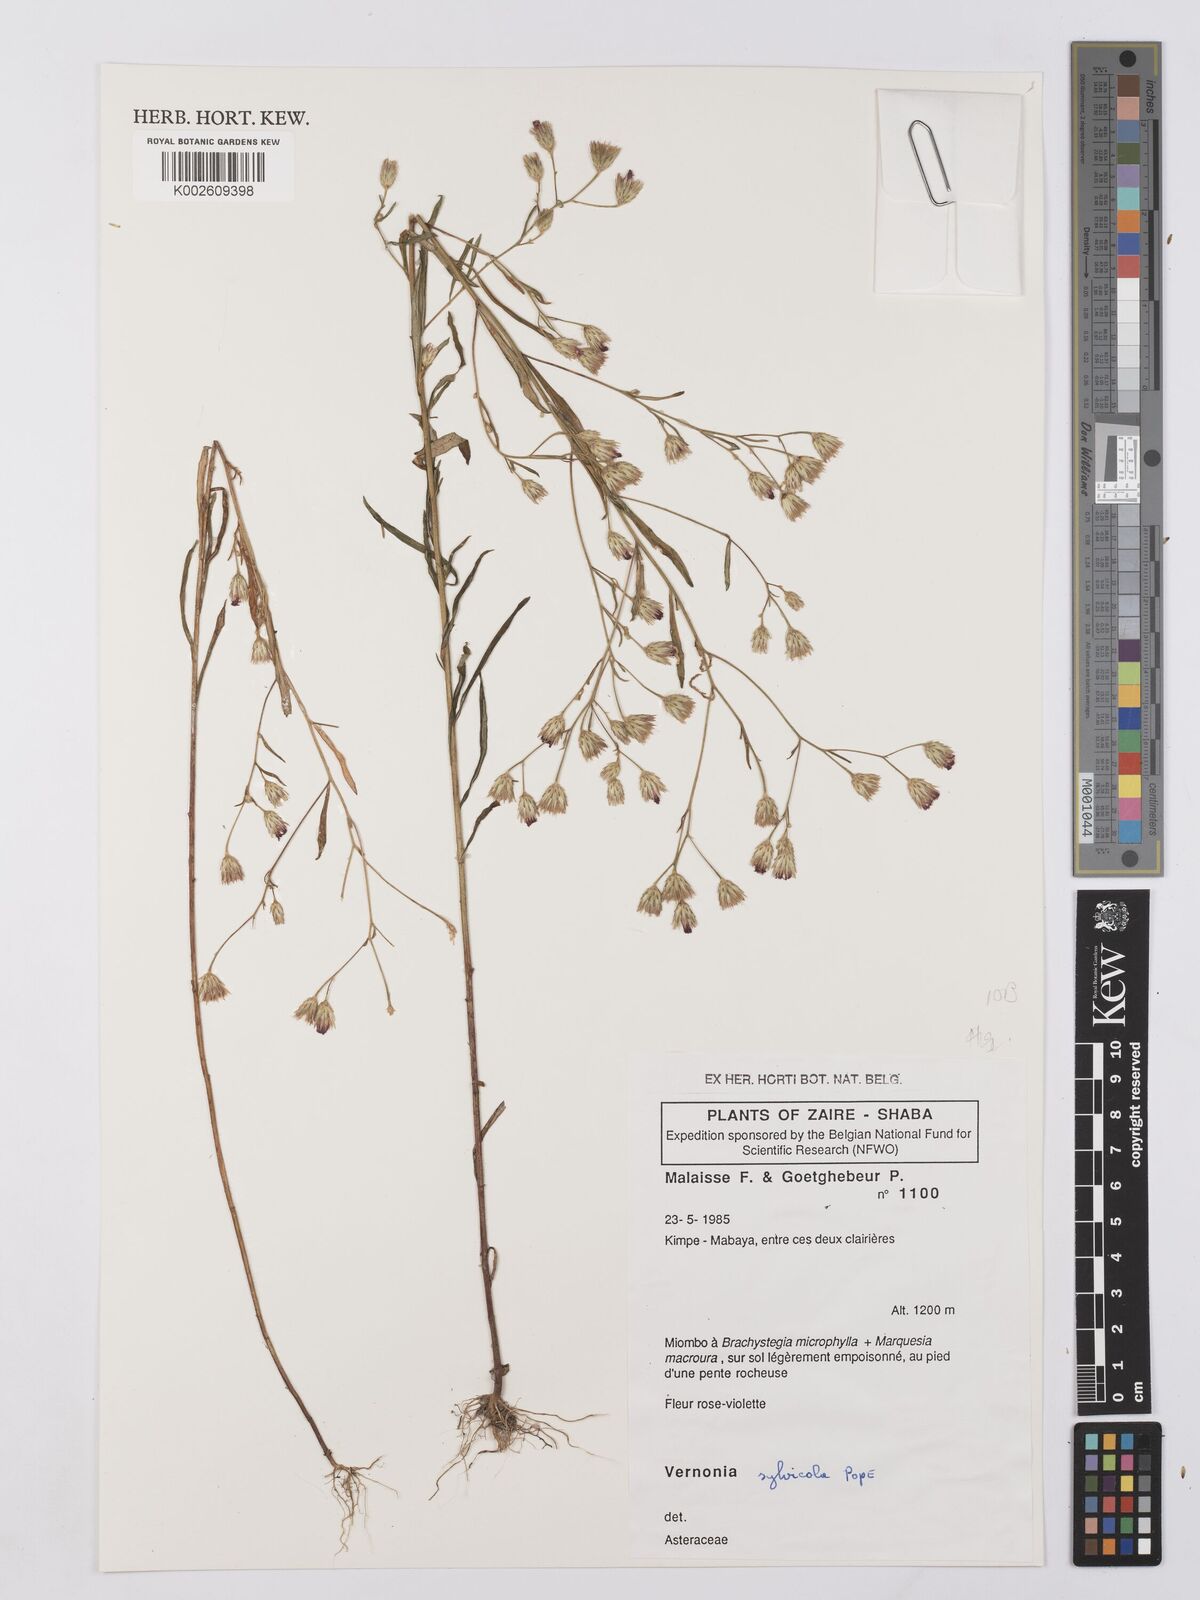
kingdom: Plantae
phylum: Tracheophyta
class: Magnoliopsida
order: Asterales
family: Asteraceae
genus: Crystallopollen
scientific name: Crystallopollen sylvicola
